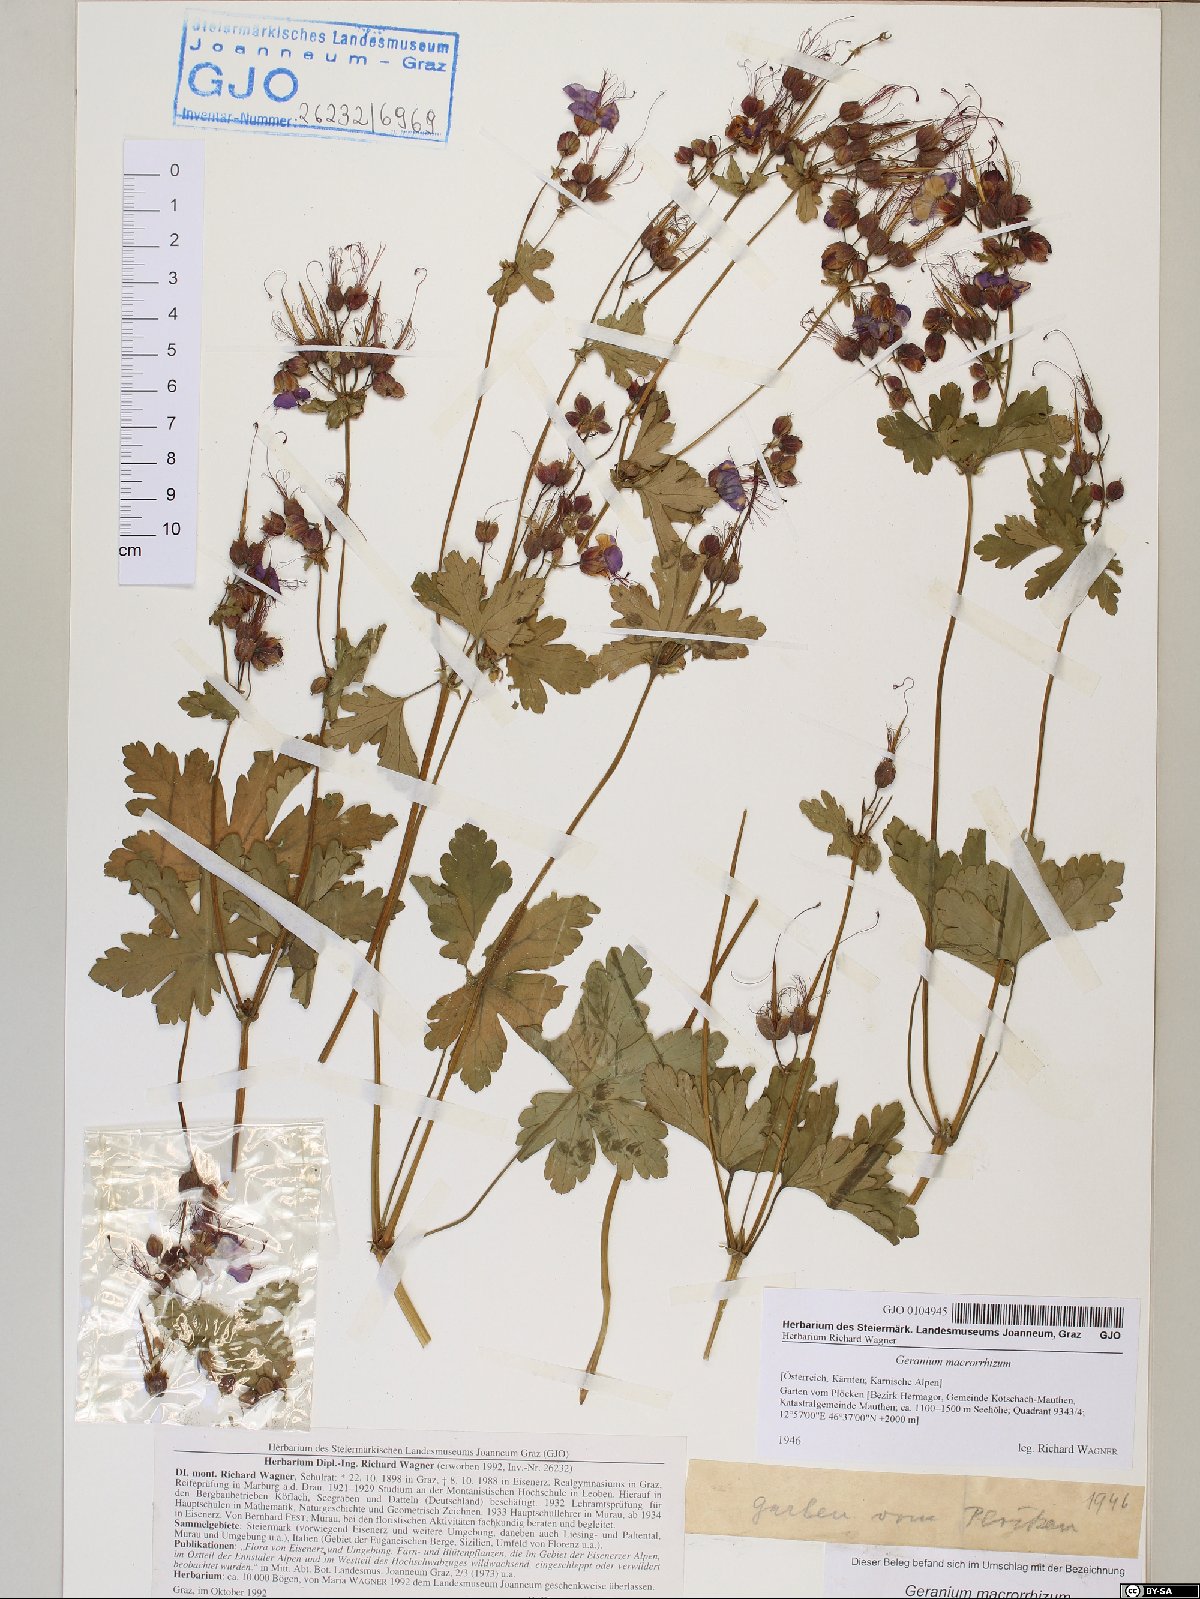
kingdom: Plantae
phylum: Tracheophyta
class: Magnoliopsida
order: Geraniales
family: Geraniaceae
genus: Geranium
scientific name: Geranium macrorrhizum
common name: Rock crane's-bill
